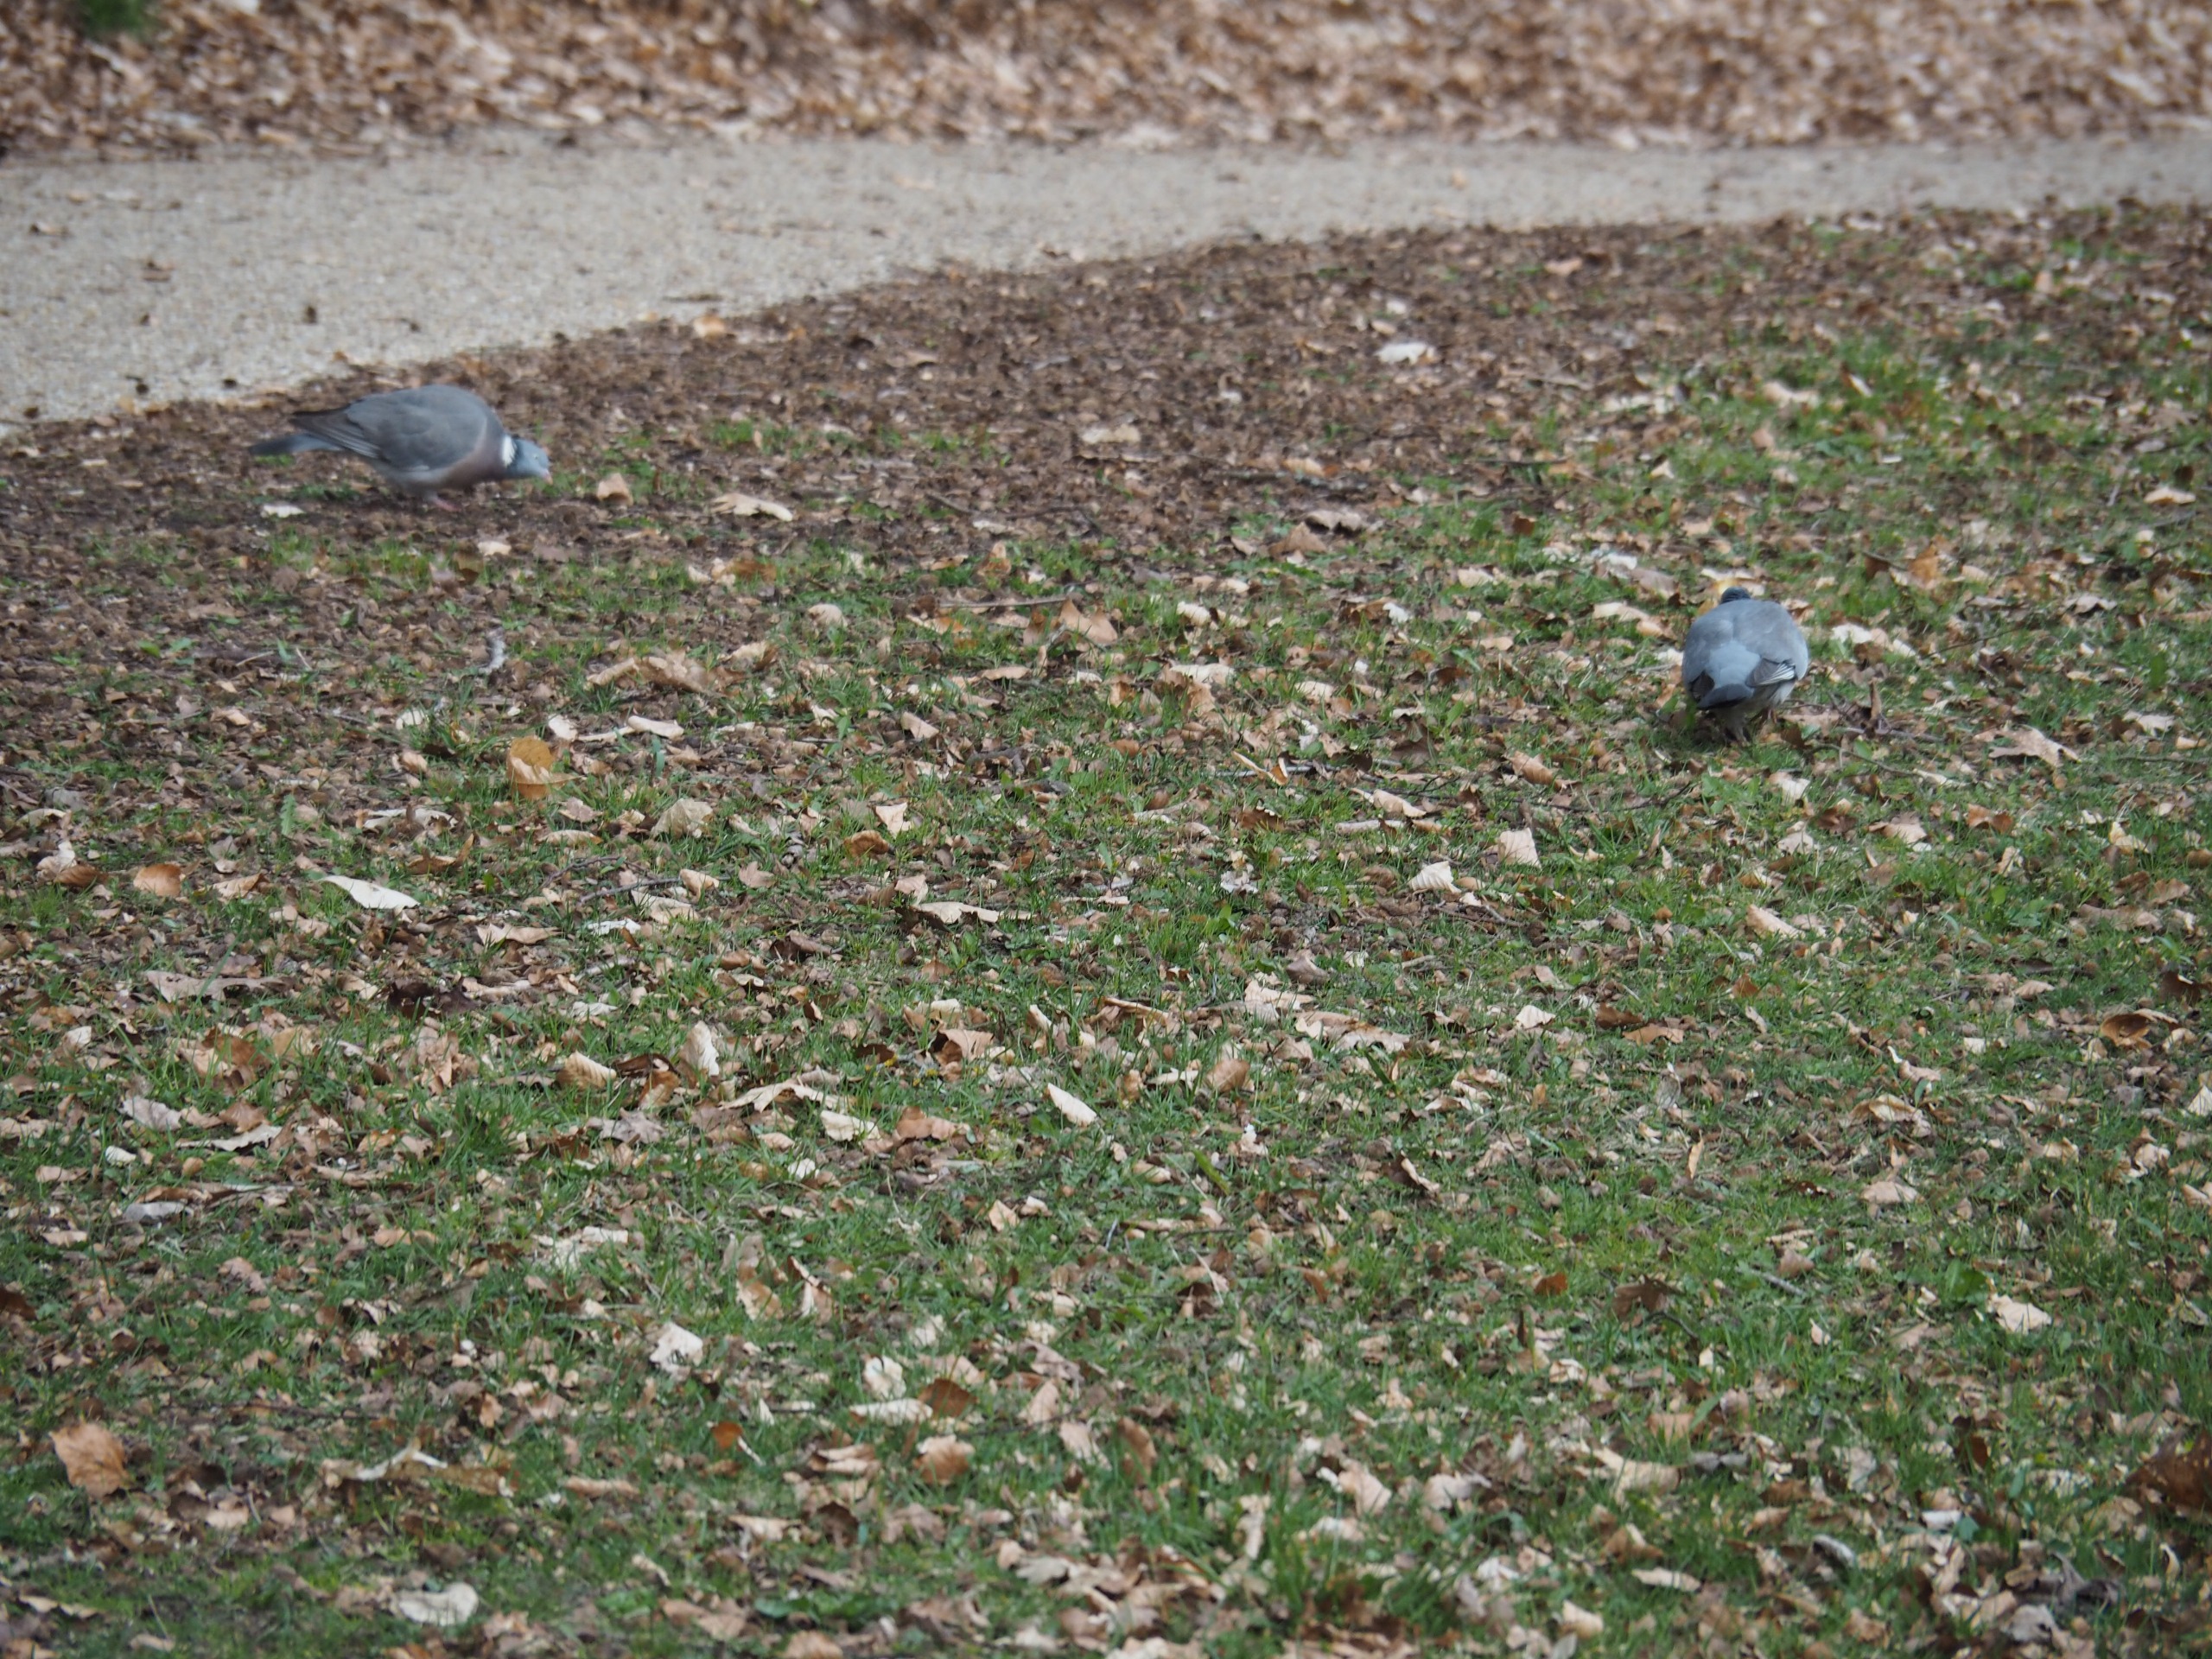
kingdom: Animalia
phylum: Chordata
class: Aves
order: Columbiformes
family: Columbidae
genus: Columba
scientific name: Columba palumbus
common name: Ringdue
